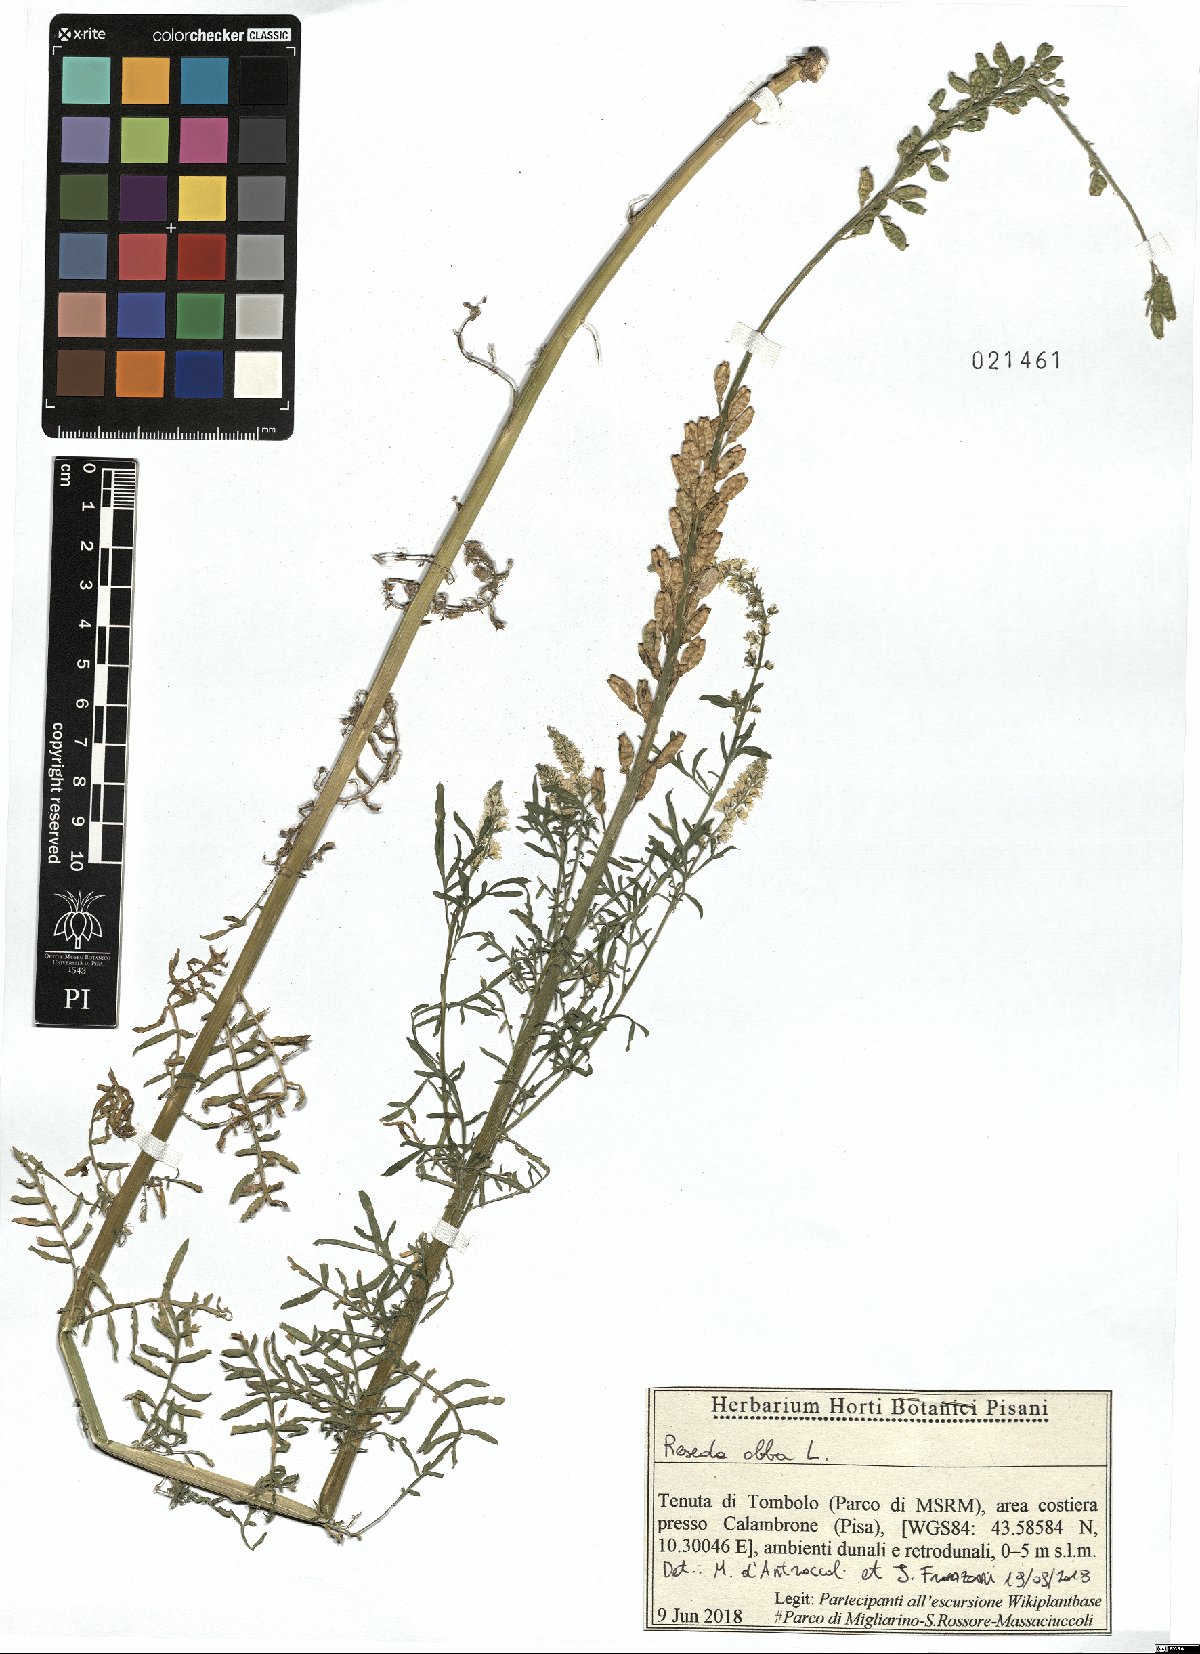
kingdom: Plantae
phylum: Tracheophyta
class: Magnoliopsida
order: Brassicales
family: Resedaceae
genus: Reseda
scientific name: Reseda alba
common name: White mignonette
